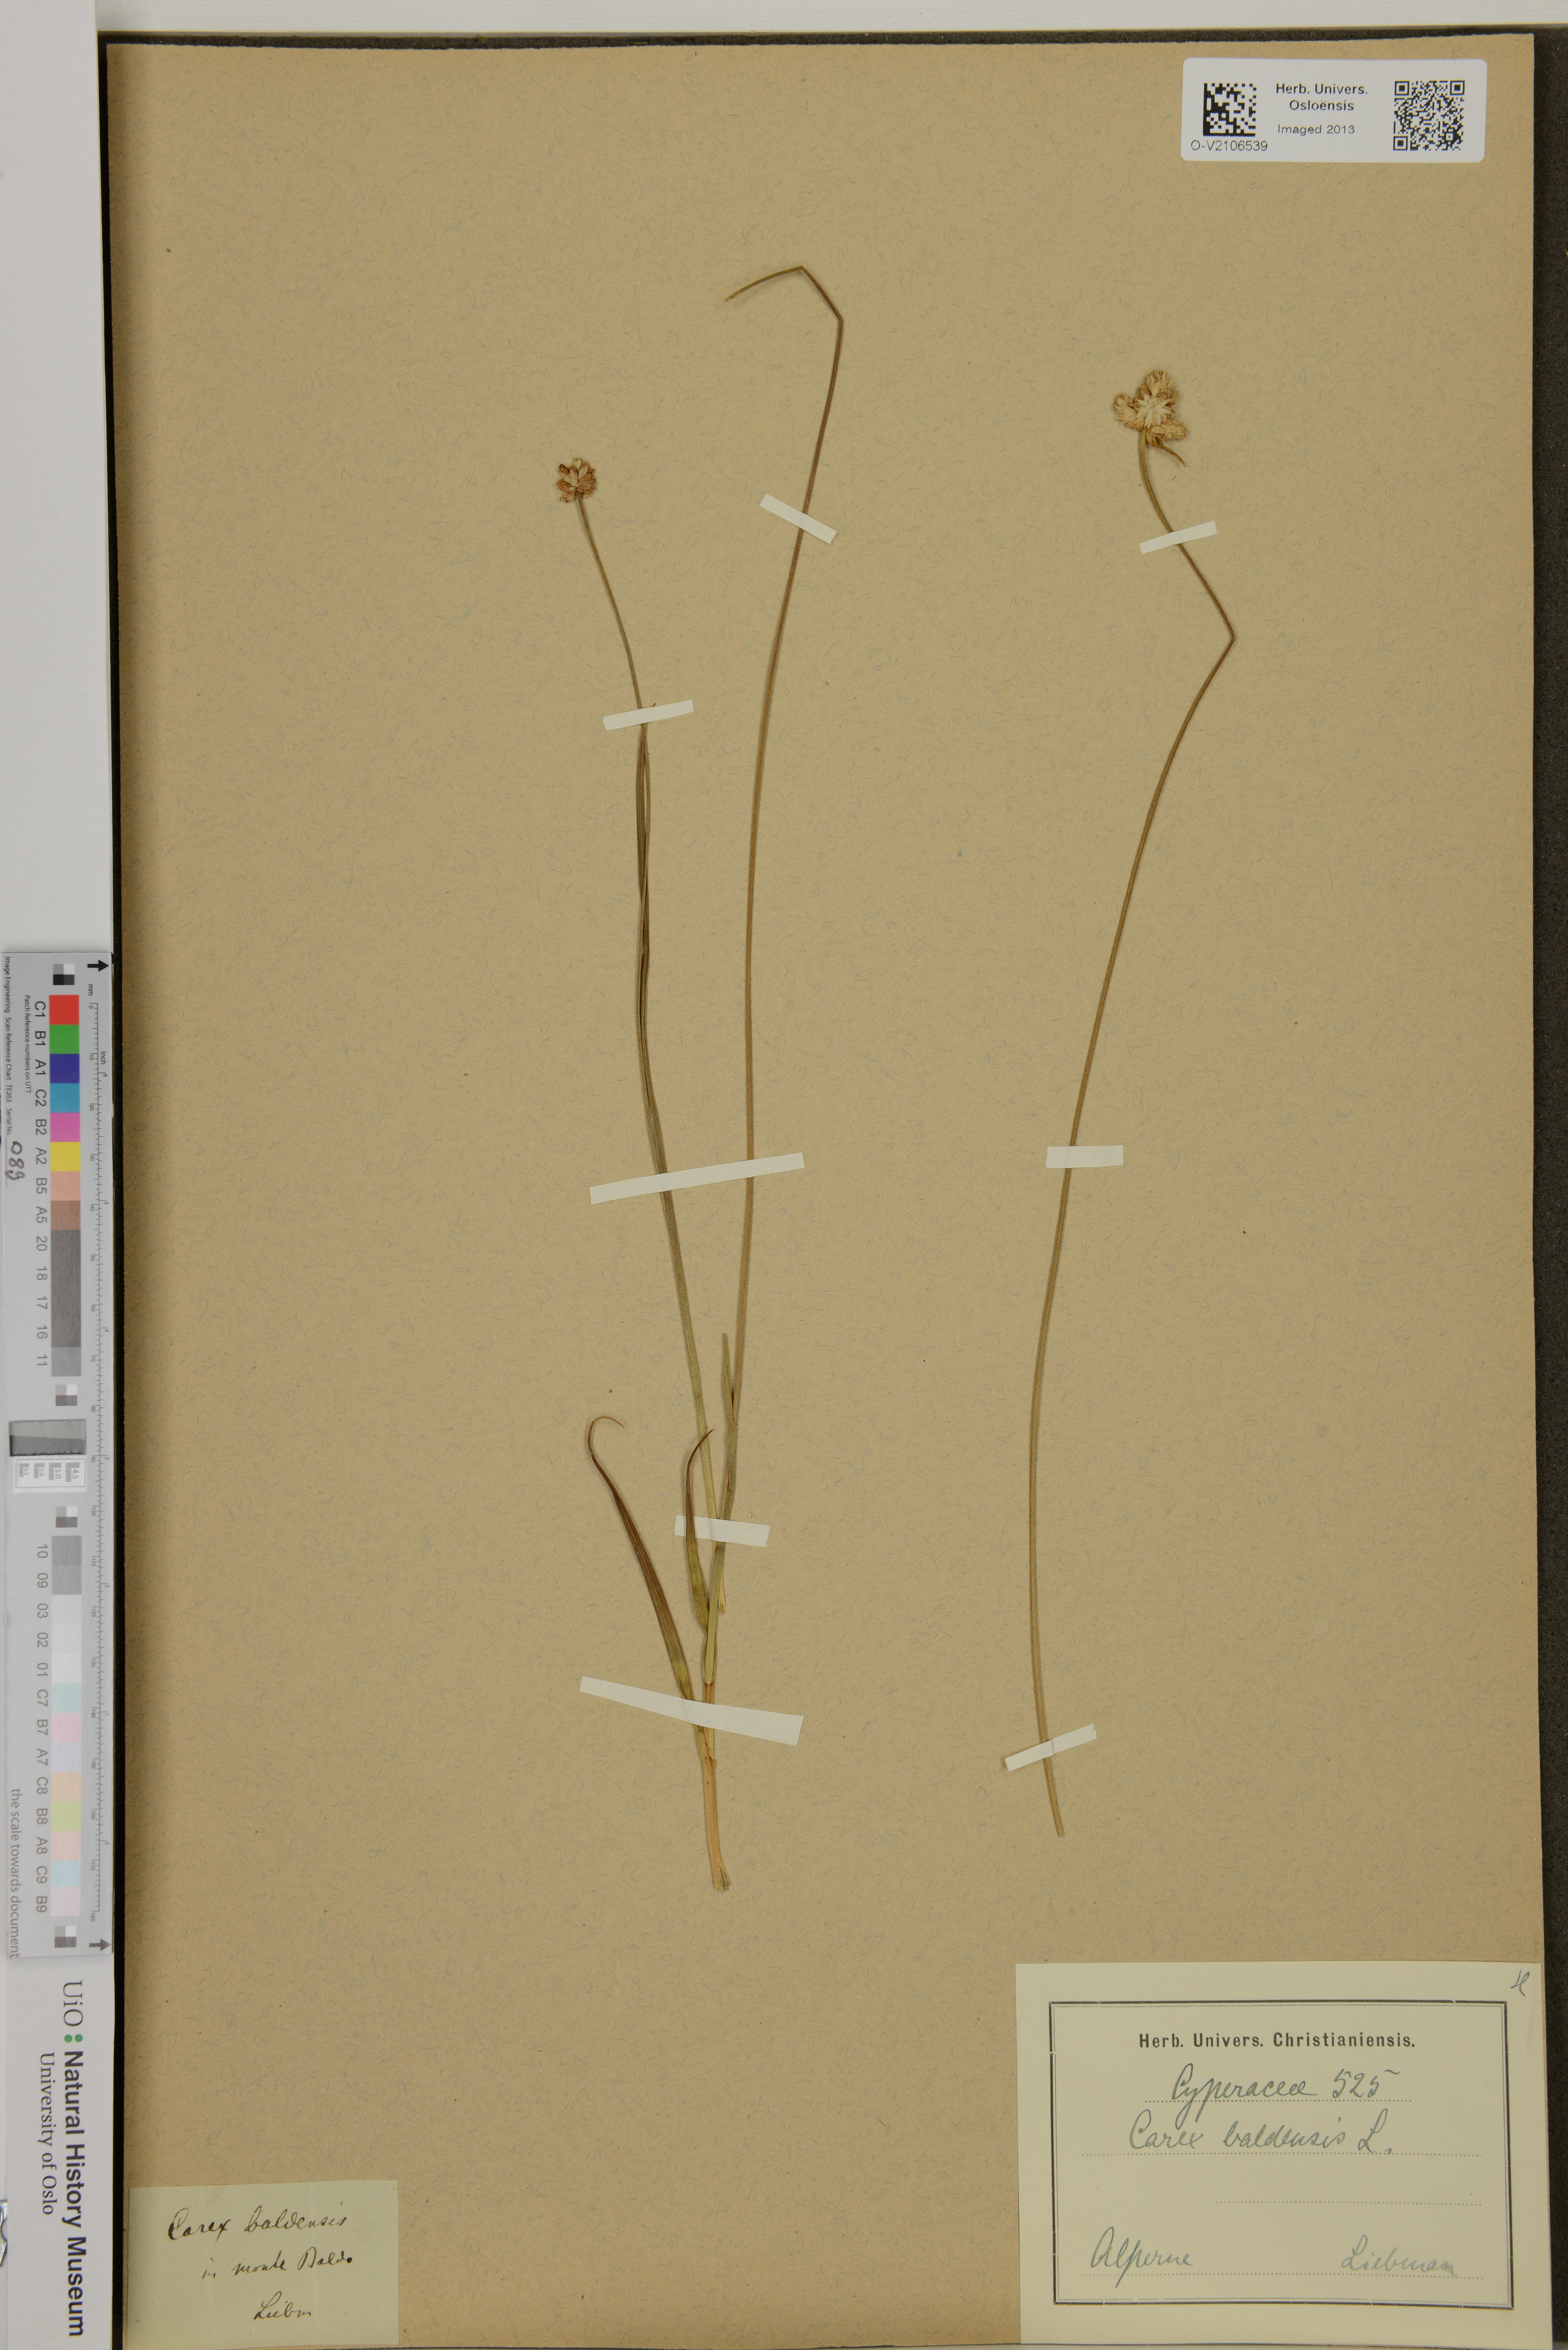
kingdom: Plantae
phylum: Tracheophyta
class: Liliopsida
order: Poales
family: Cyperaceae
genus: Carex
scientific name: Carex baldensis
